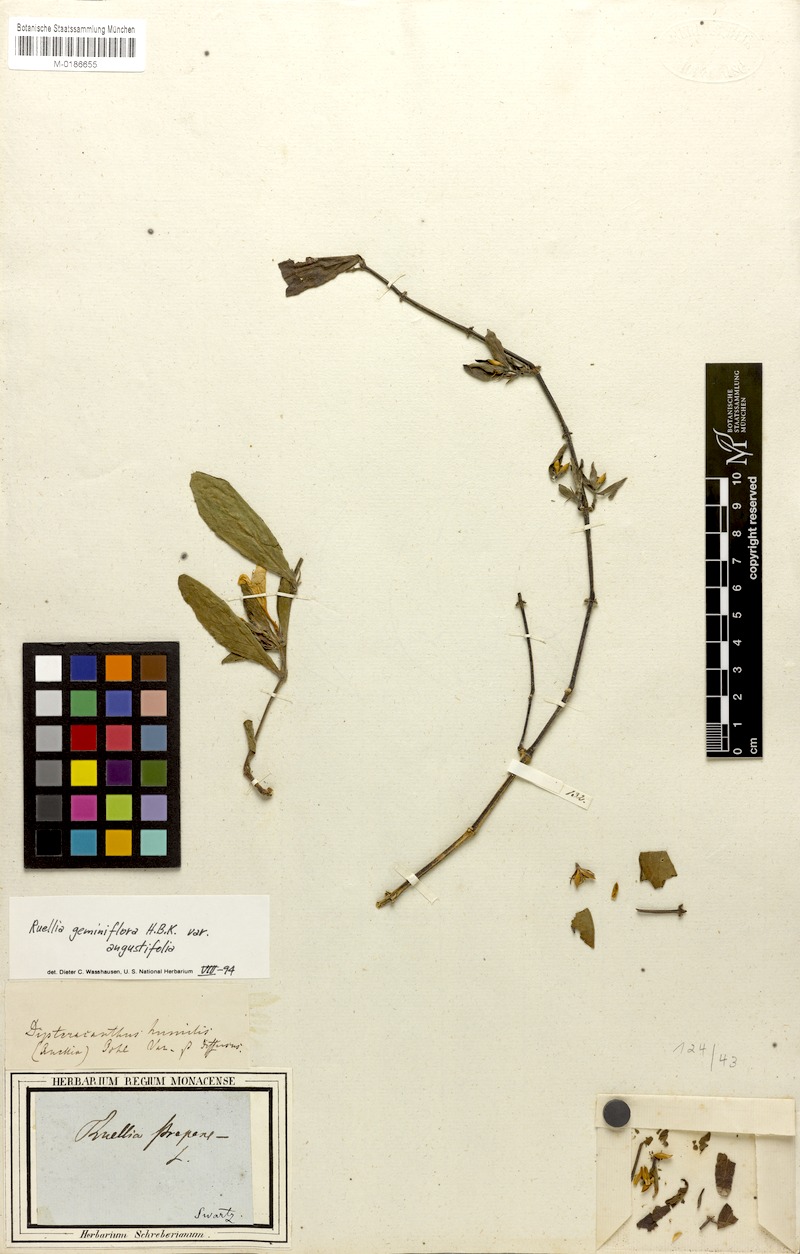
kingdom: Plantae
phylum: Tracheophyta
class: Magnoliopsida
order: Lamiales
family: Acanthaceae
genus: Ruellia
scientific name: Ruellia geminiflora
